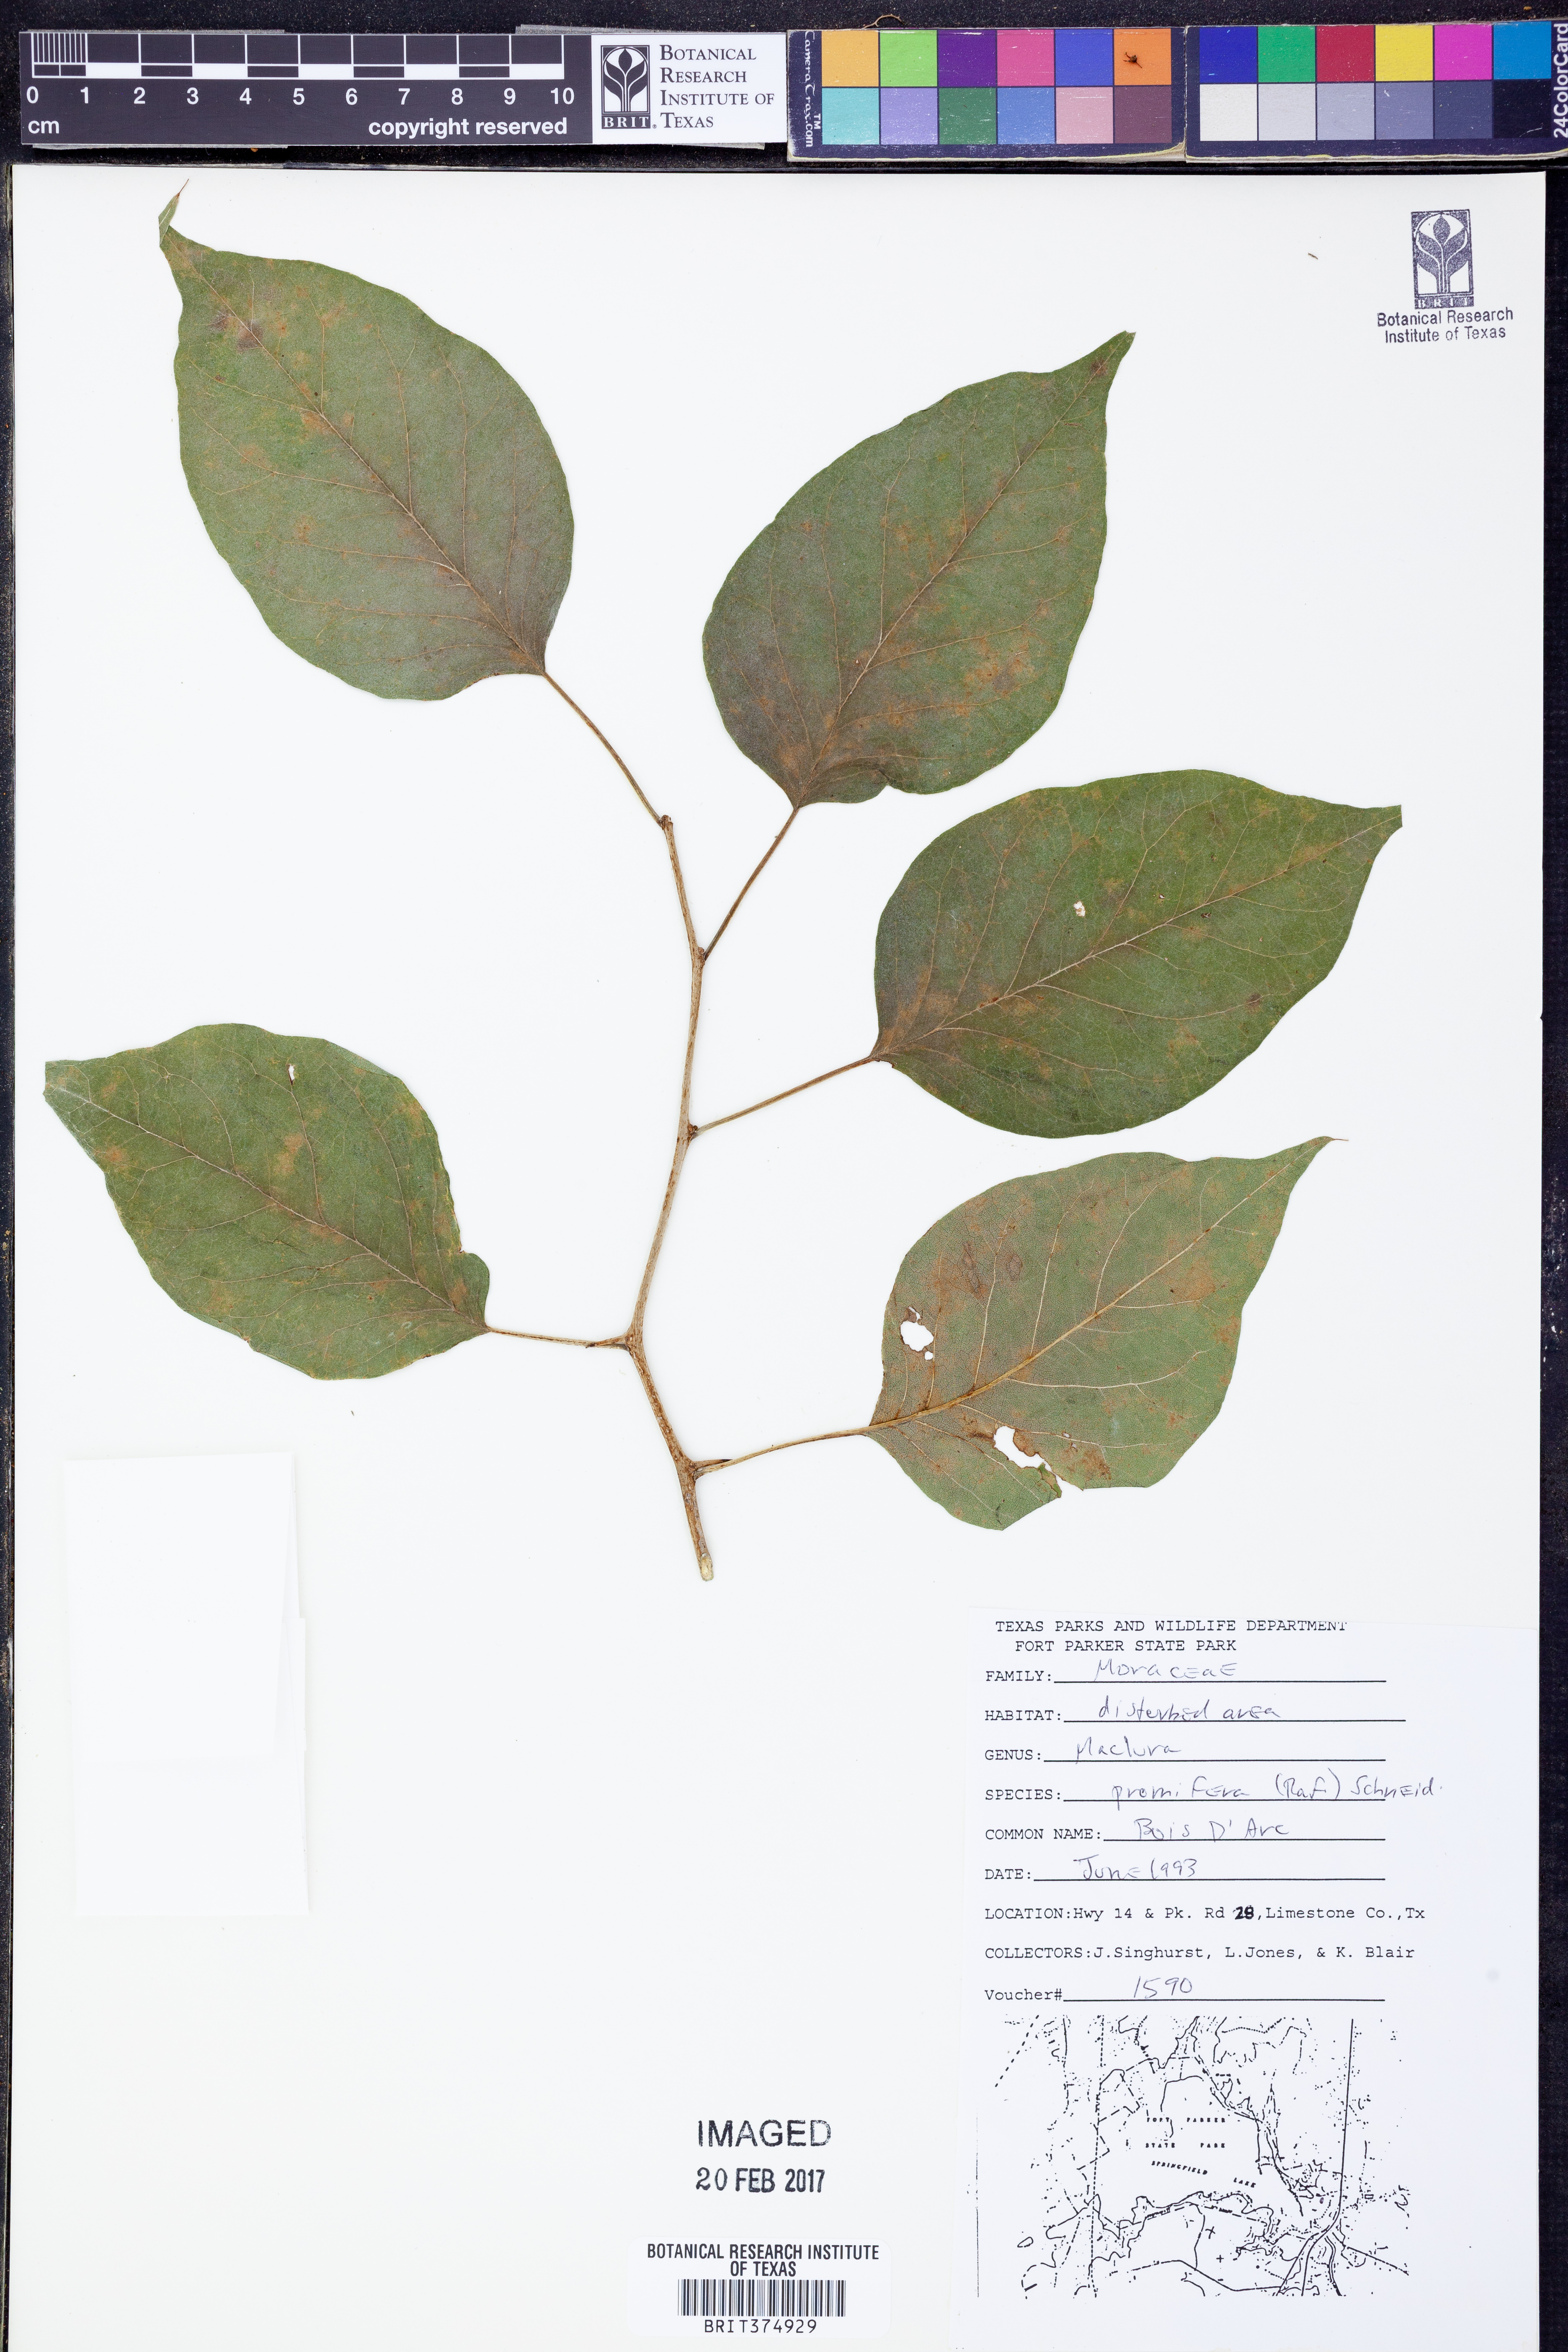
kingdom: Plantae
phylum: Tracheophyta
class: Magnoliopsida
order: Rosales
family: Moraceae
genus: Maclura
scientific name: Maclura pomifera
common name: Osage-orange
